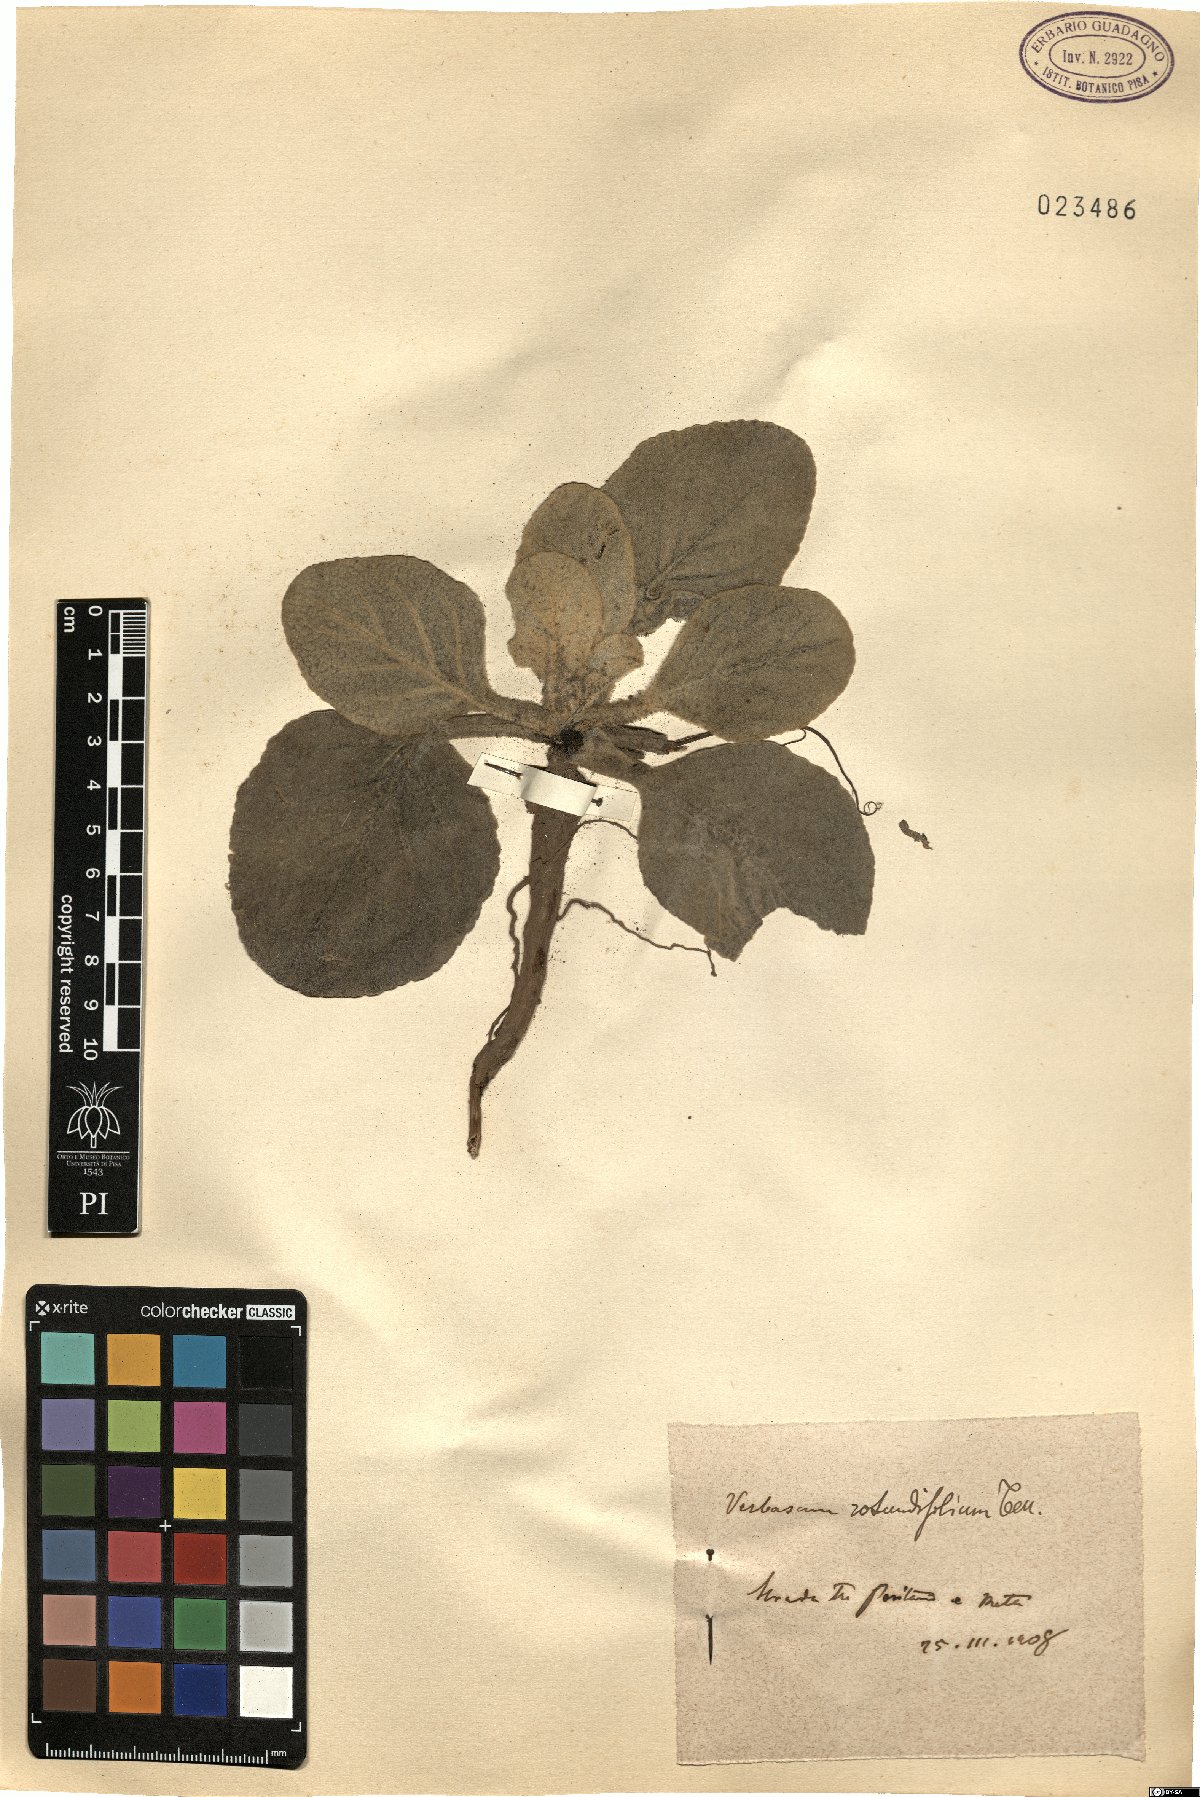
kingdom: Plantae
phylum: Tracheophyta
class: Magnoliopsida
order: Lamiales
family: Scrophulariaceae
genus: Verbascum
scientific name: Verbascum rotundifolium
